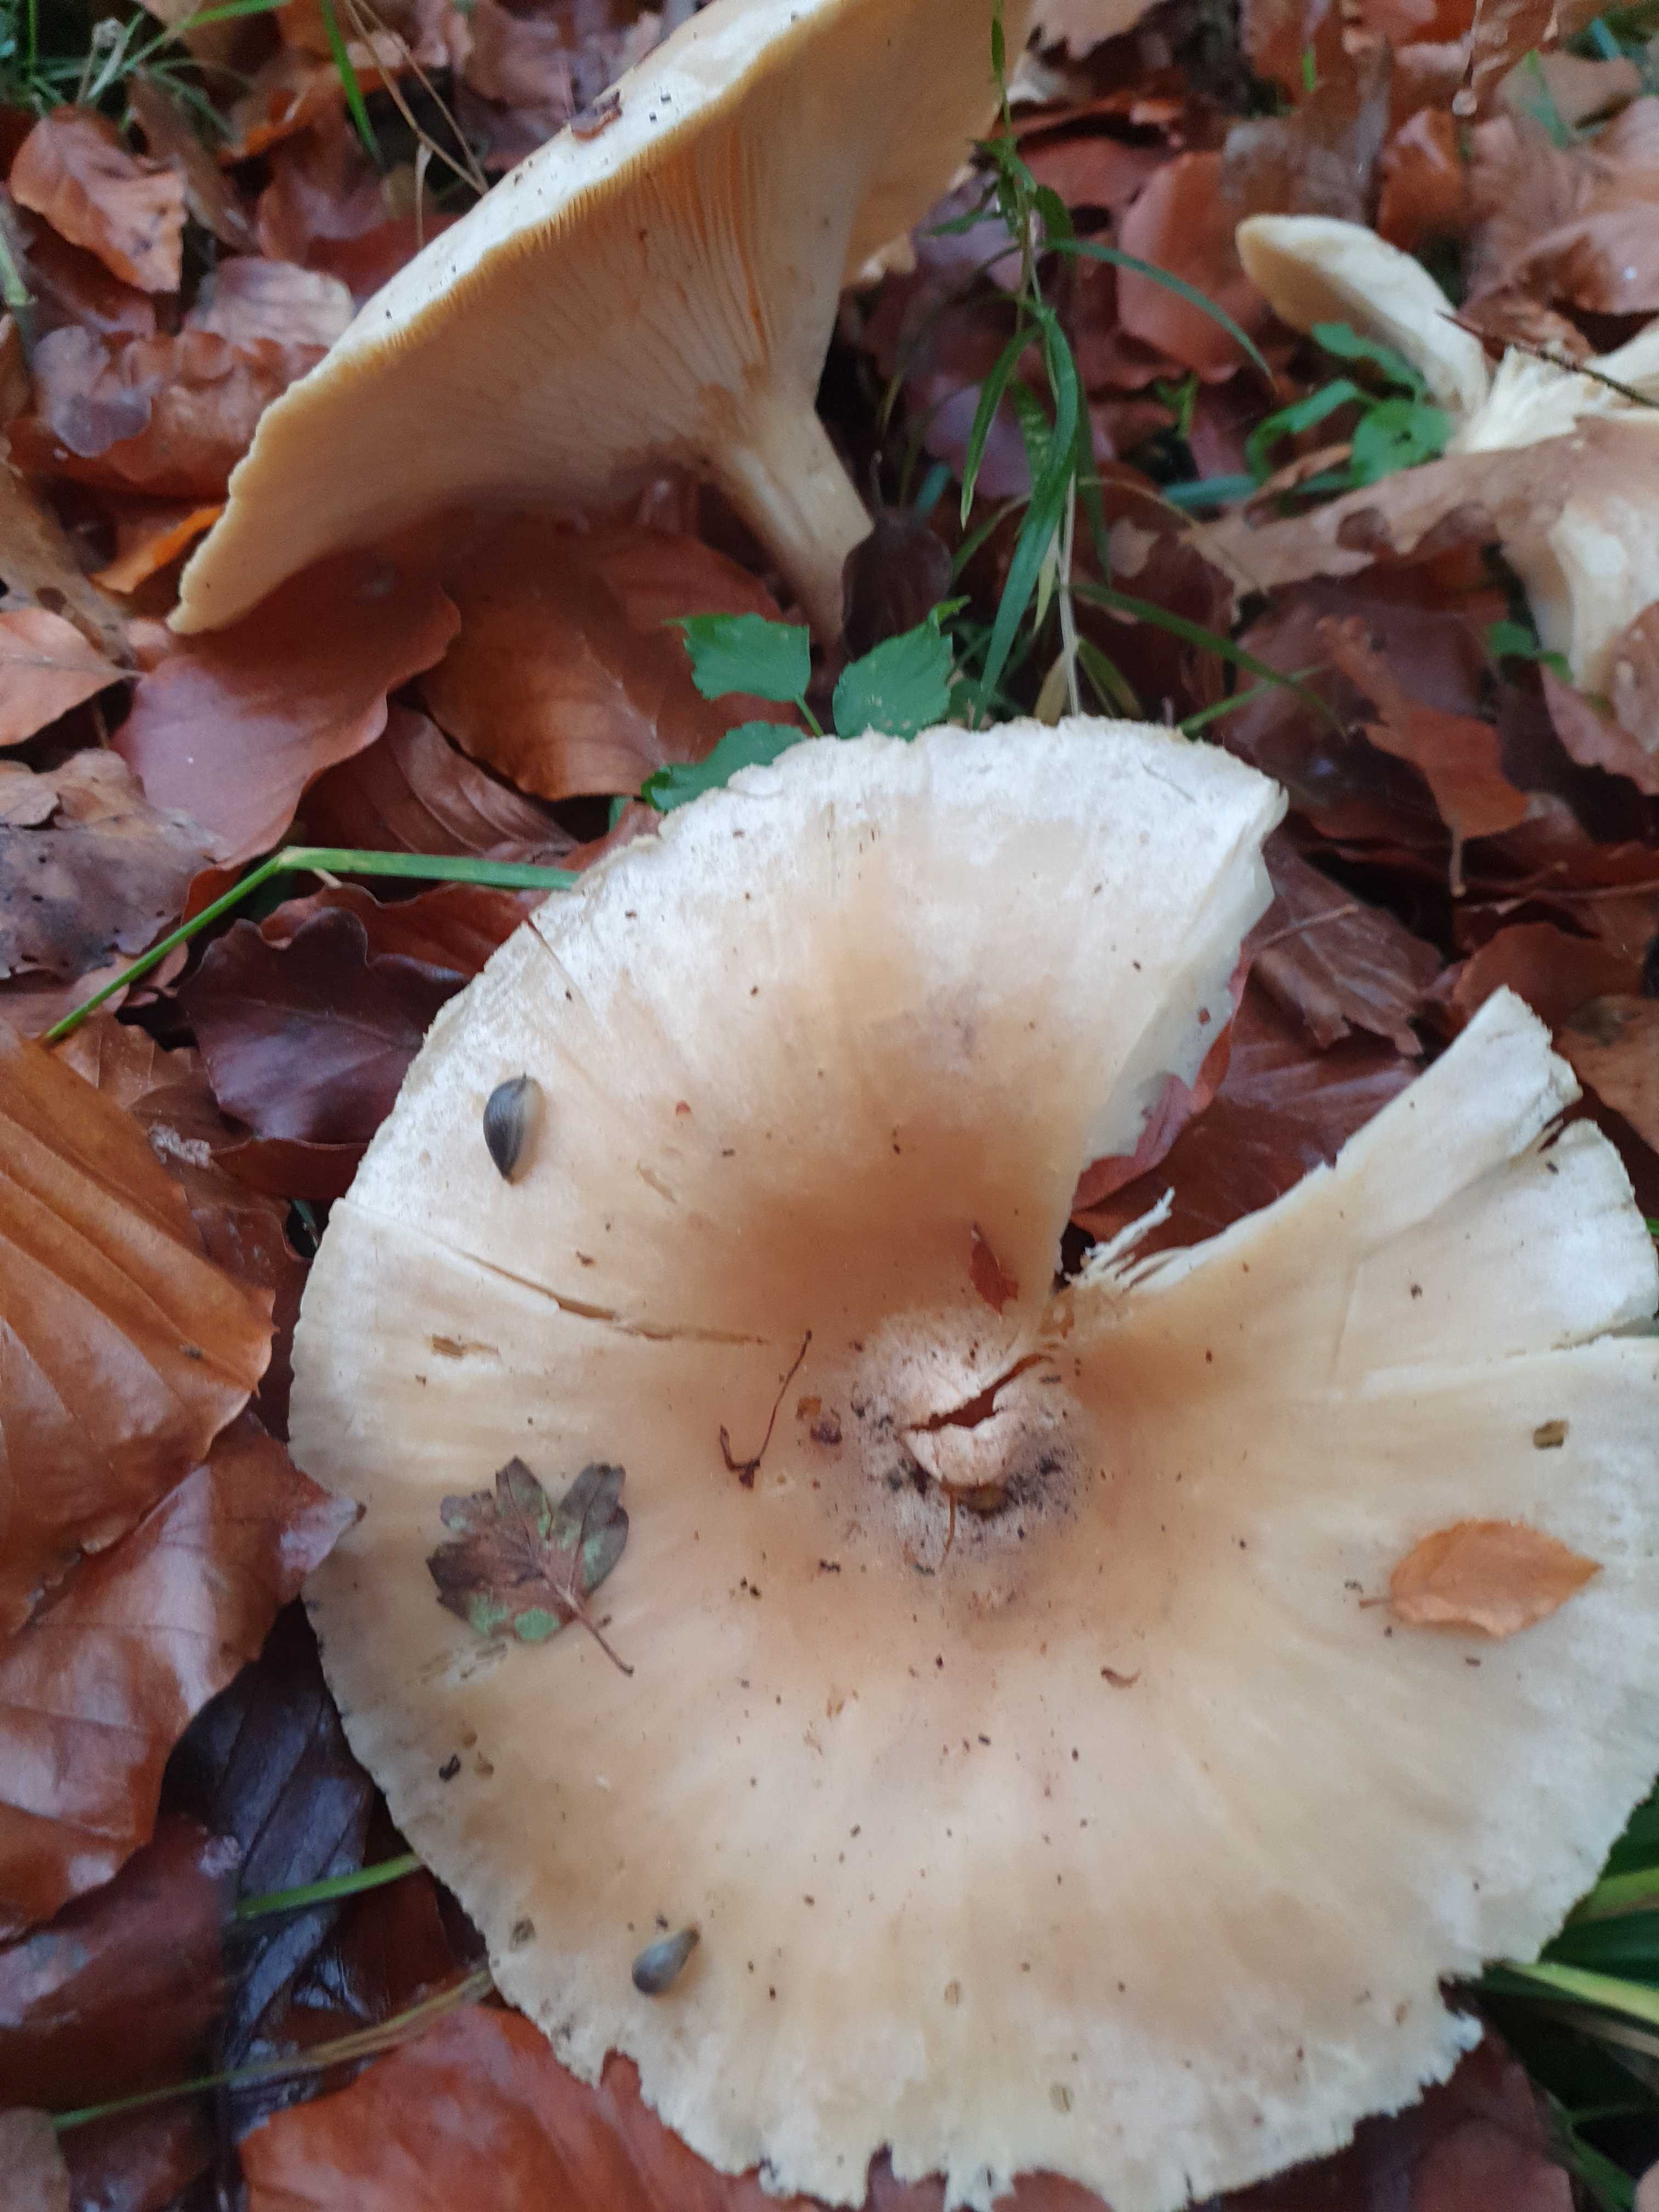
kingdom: Fungi
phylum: Basidiomycota
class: Agaricomycetes
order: Agaricales
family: Tricholomataceae
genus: Infundibulicybe
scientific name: Infundibulicybe
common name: tragthat
